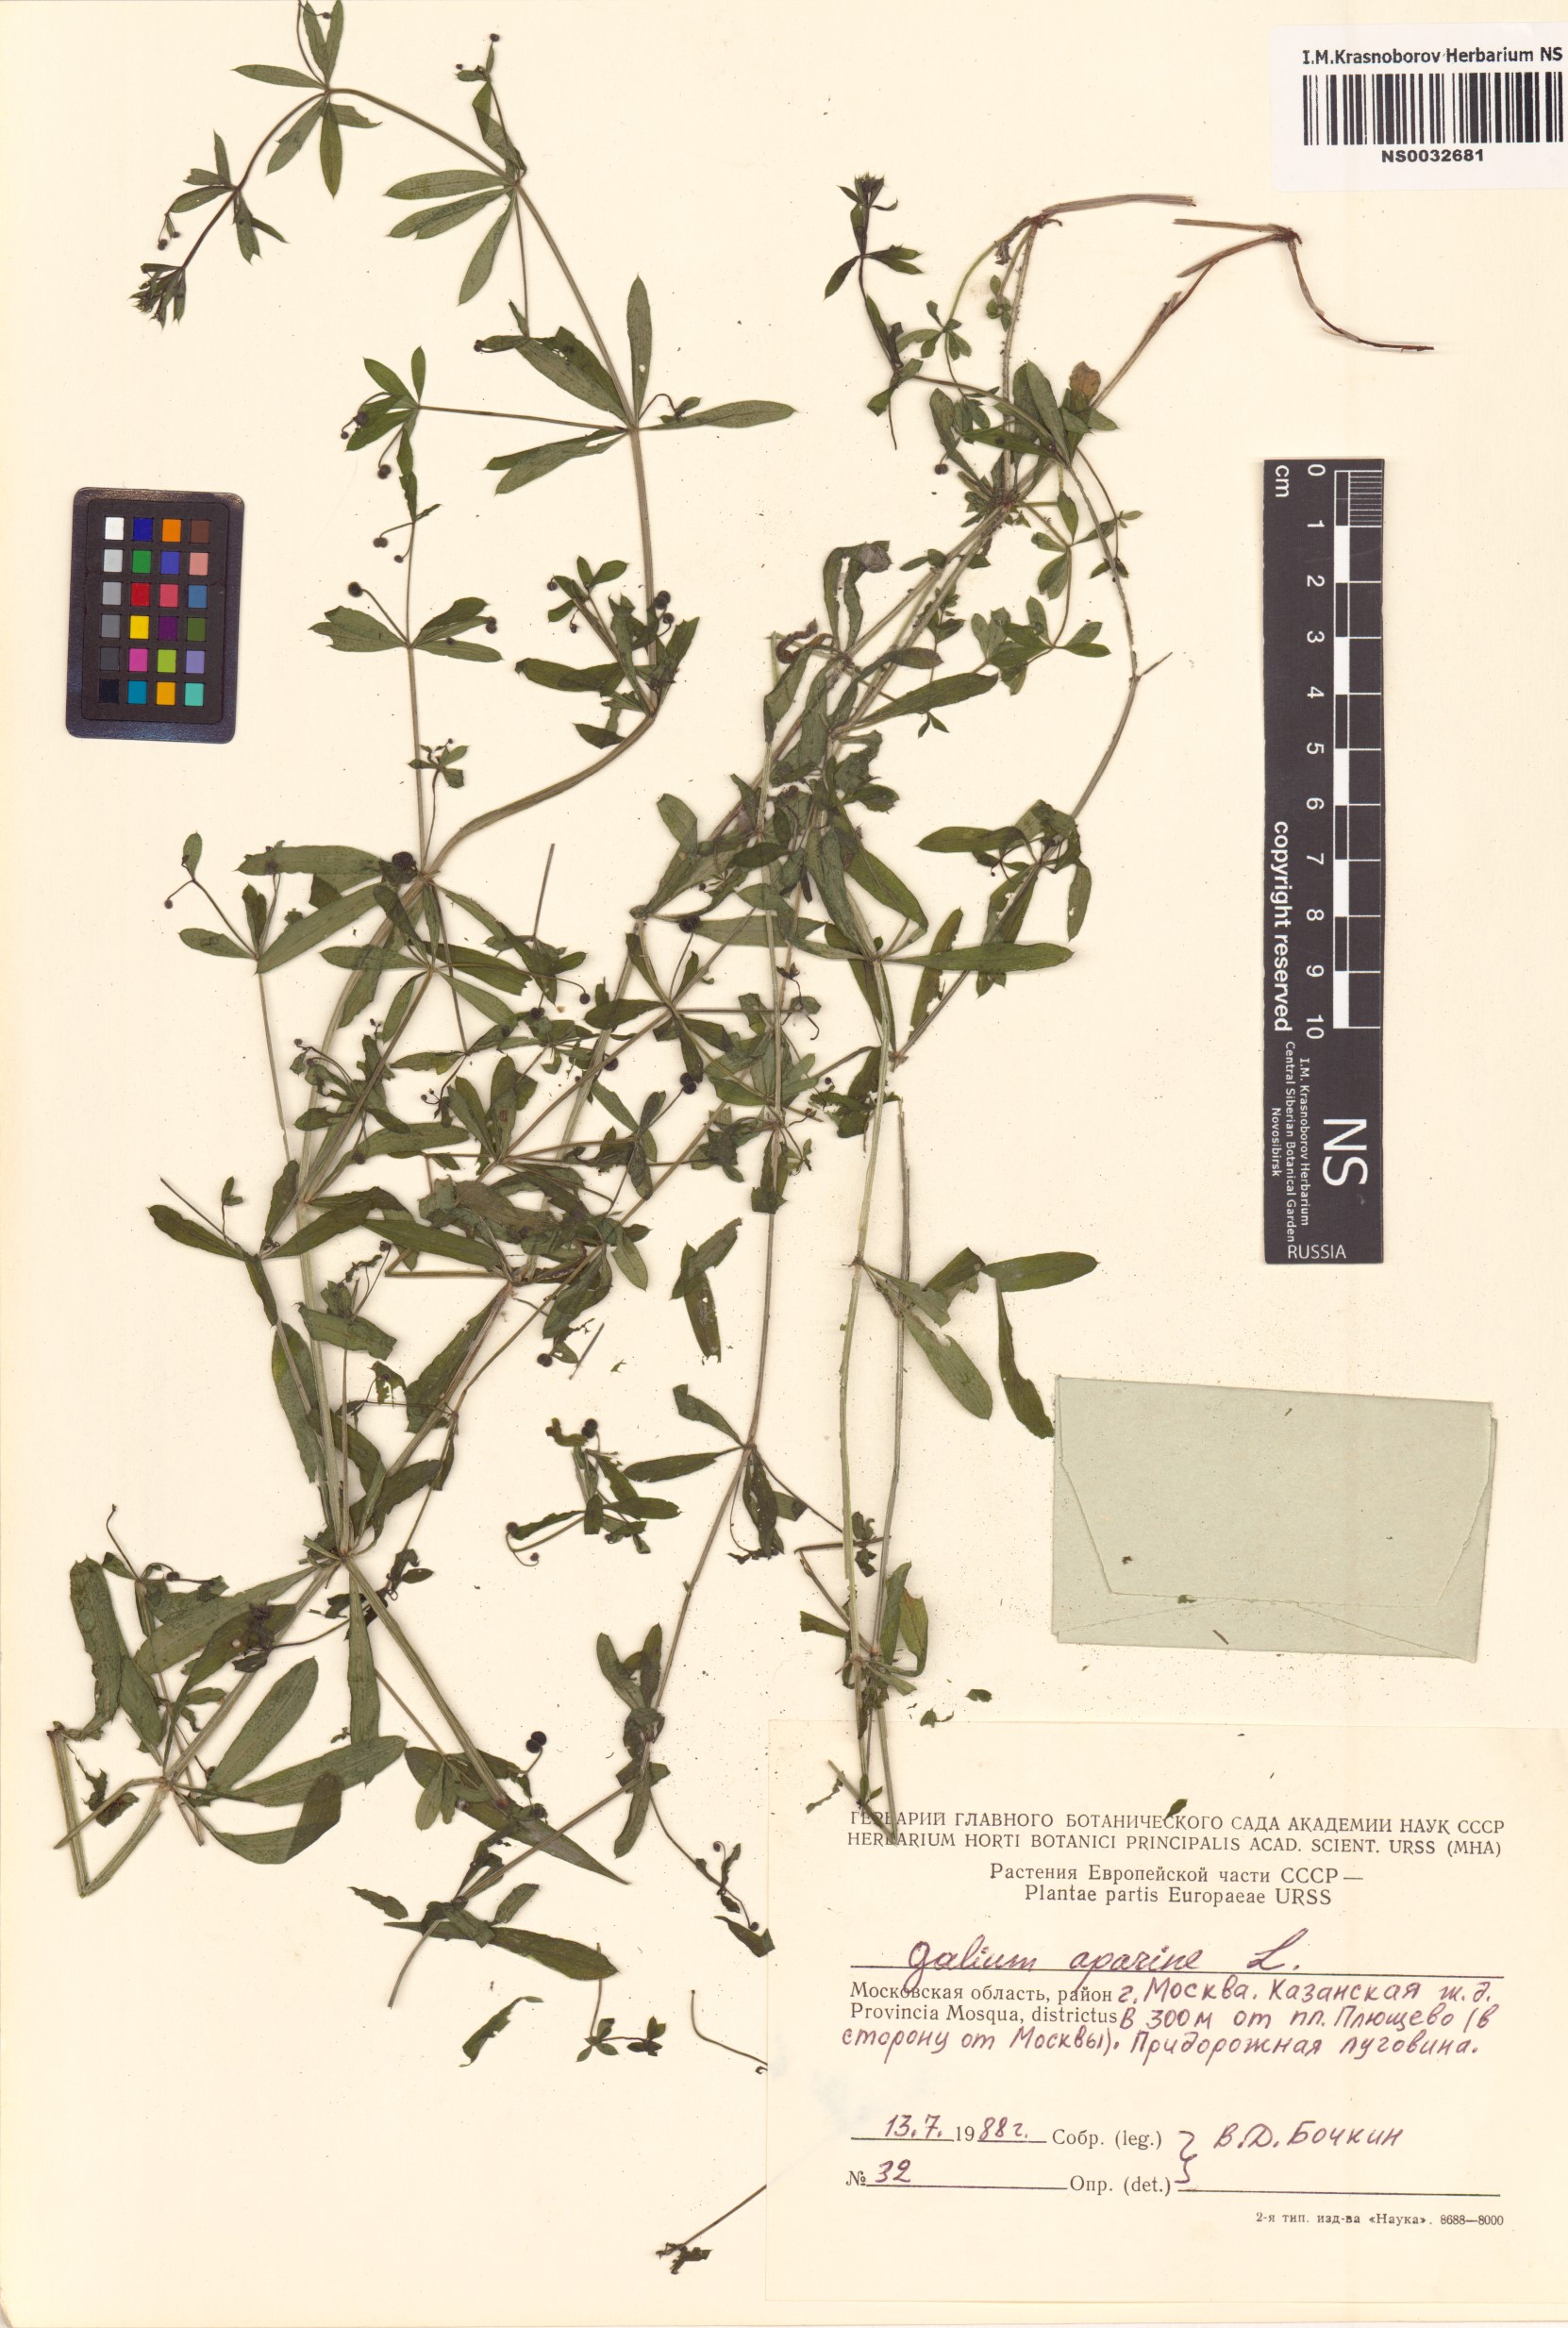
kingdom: Plantae
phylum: Tracheophyta
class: Magnoliopsida
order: Gentianales
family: Rubiaceae
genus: Galium
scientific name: Galium aparine
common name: Cleavers
